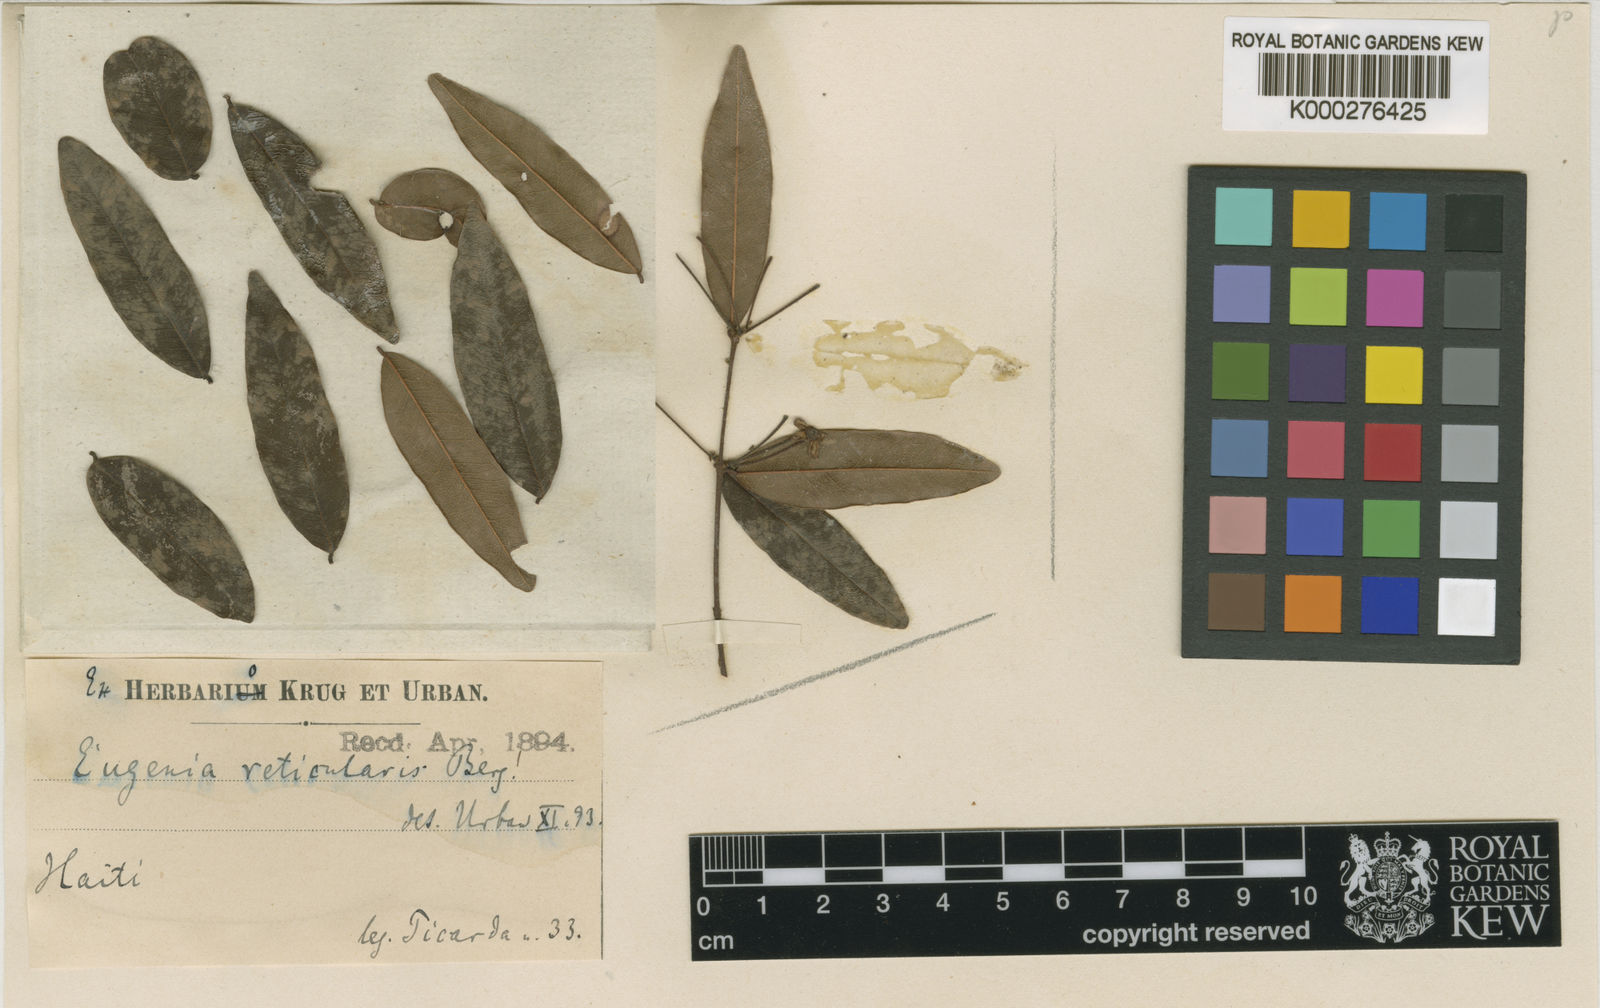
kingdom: Plantae
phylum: Tracheophyta
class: Magnoliopsida
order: Myrtales
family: Myrtaceae
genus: Eugenia
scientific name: Eugenia reticularis
